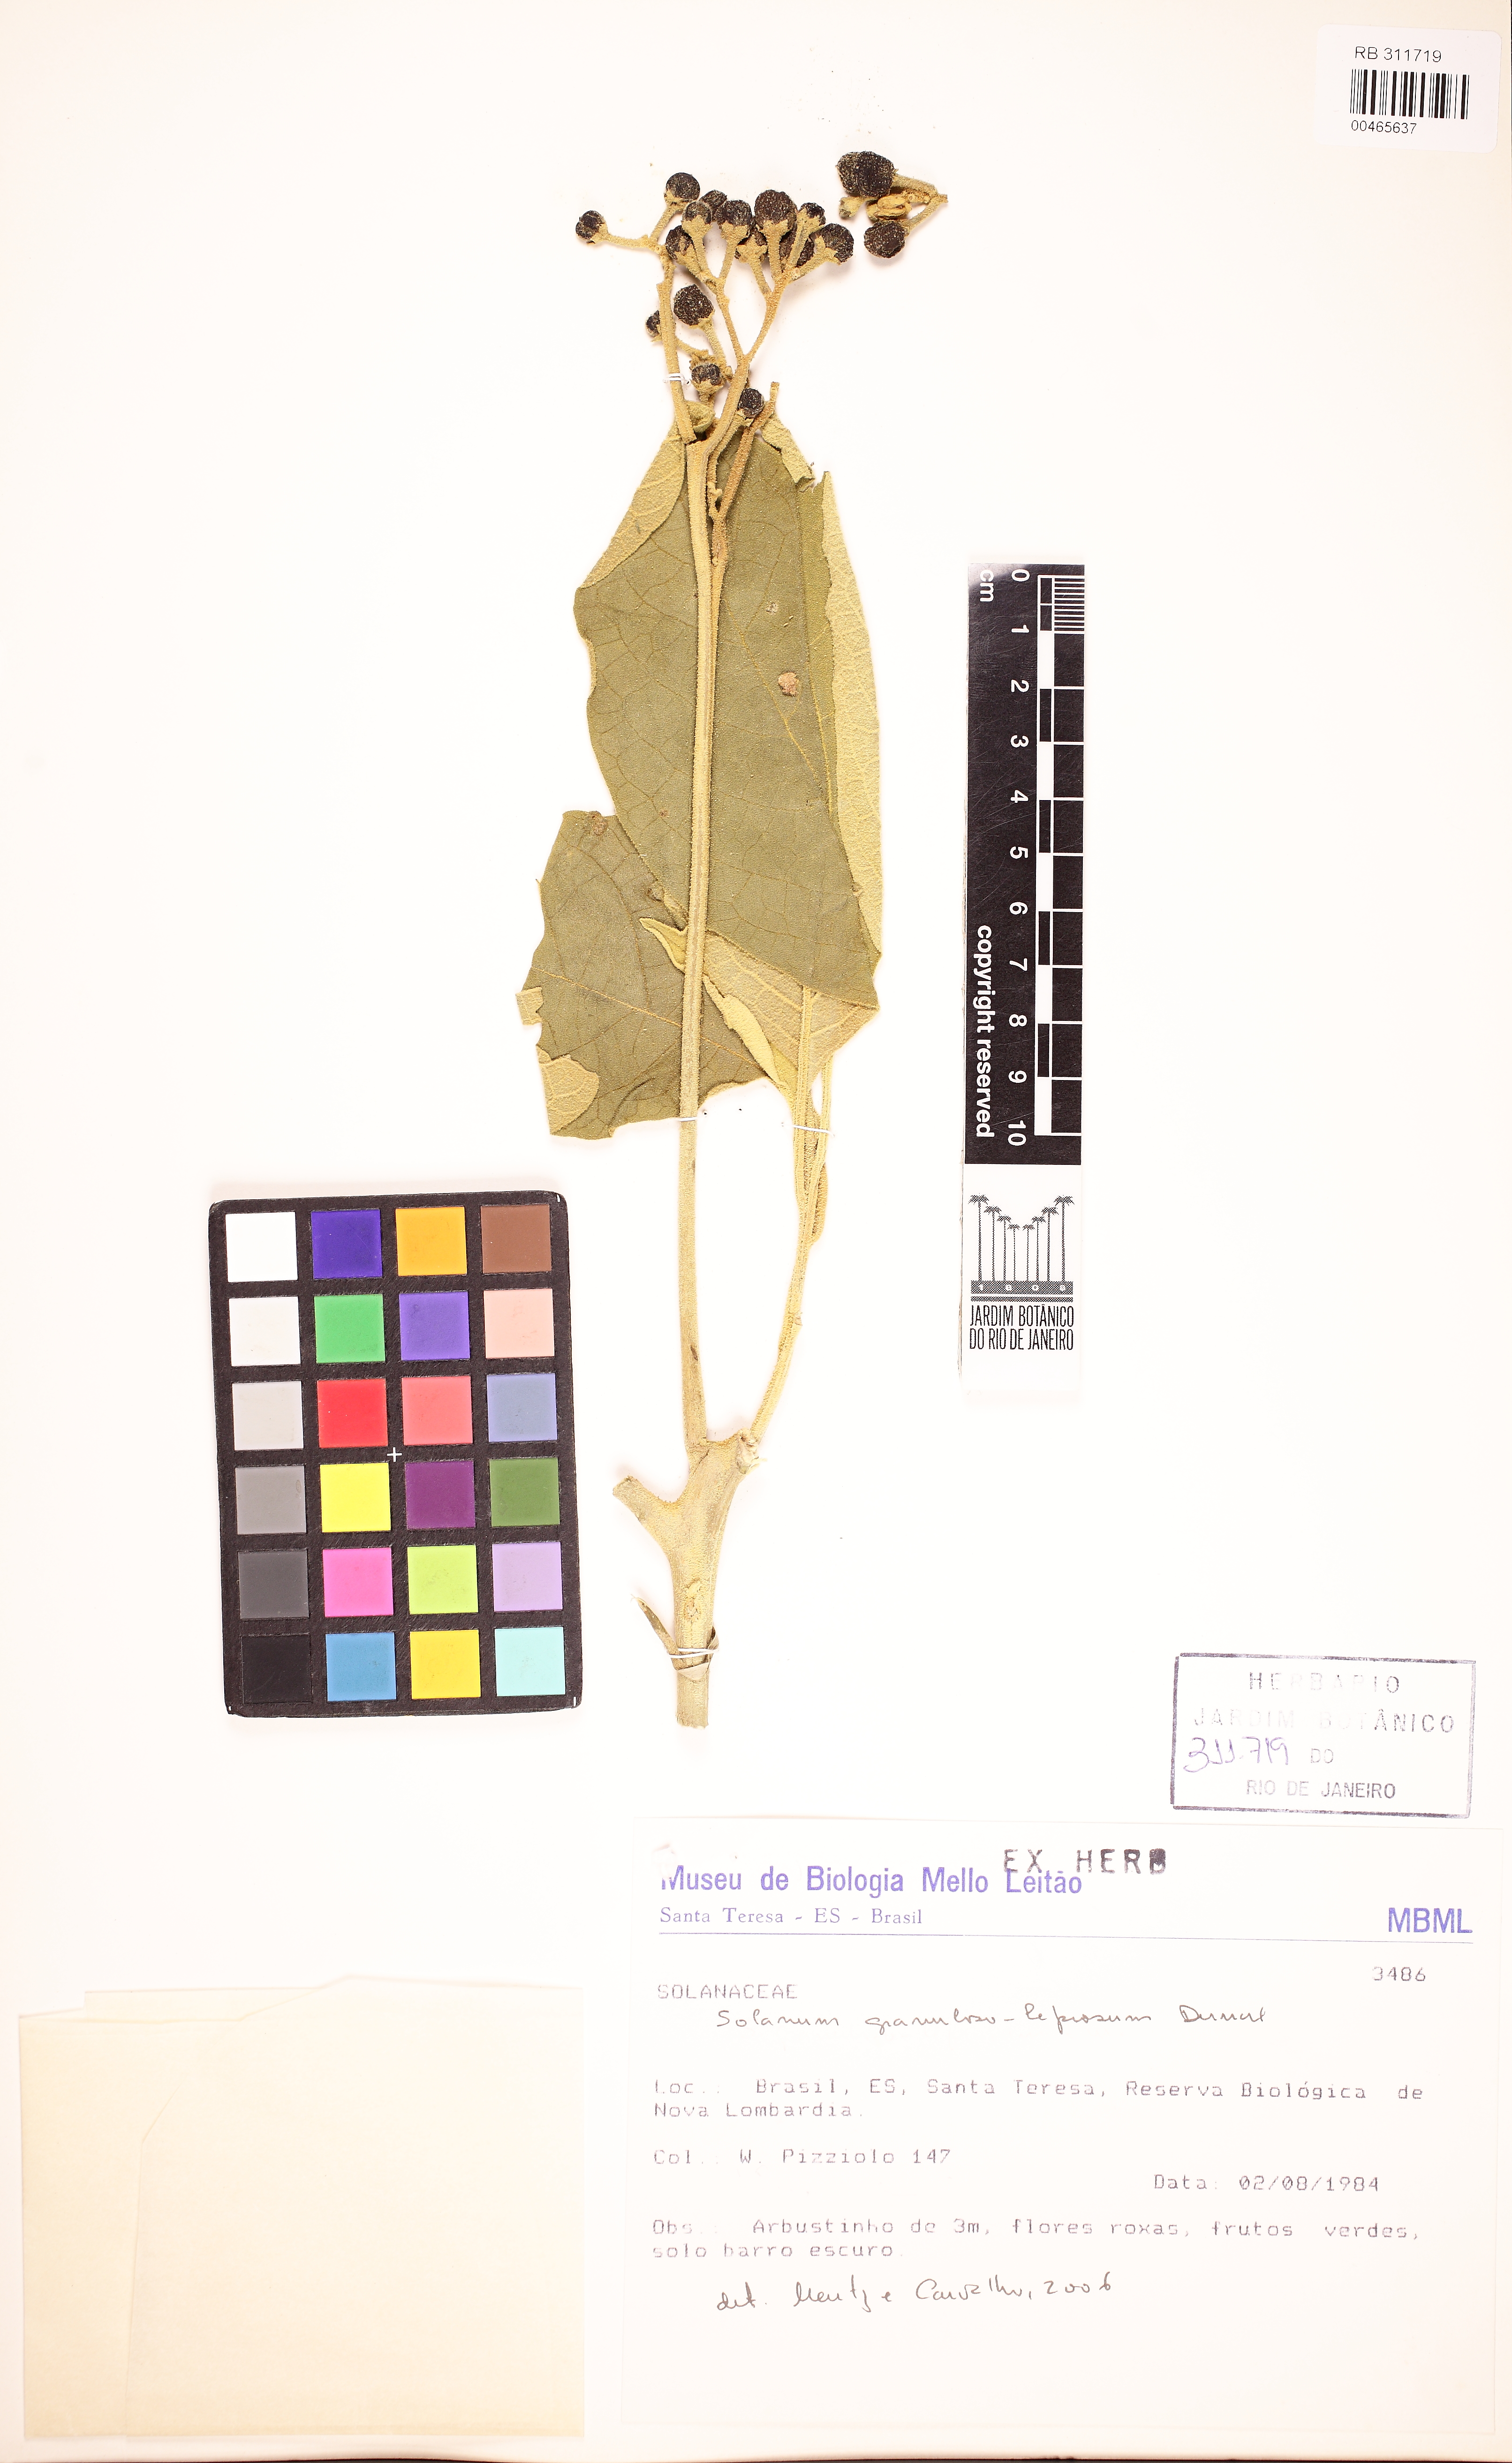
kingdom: Plantae
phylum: Tracheophyta
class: Magnoliopsida
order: Solanales
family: Solanaceae
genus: Solanum
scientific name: Solanum granulosoleprosum
